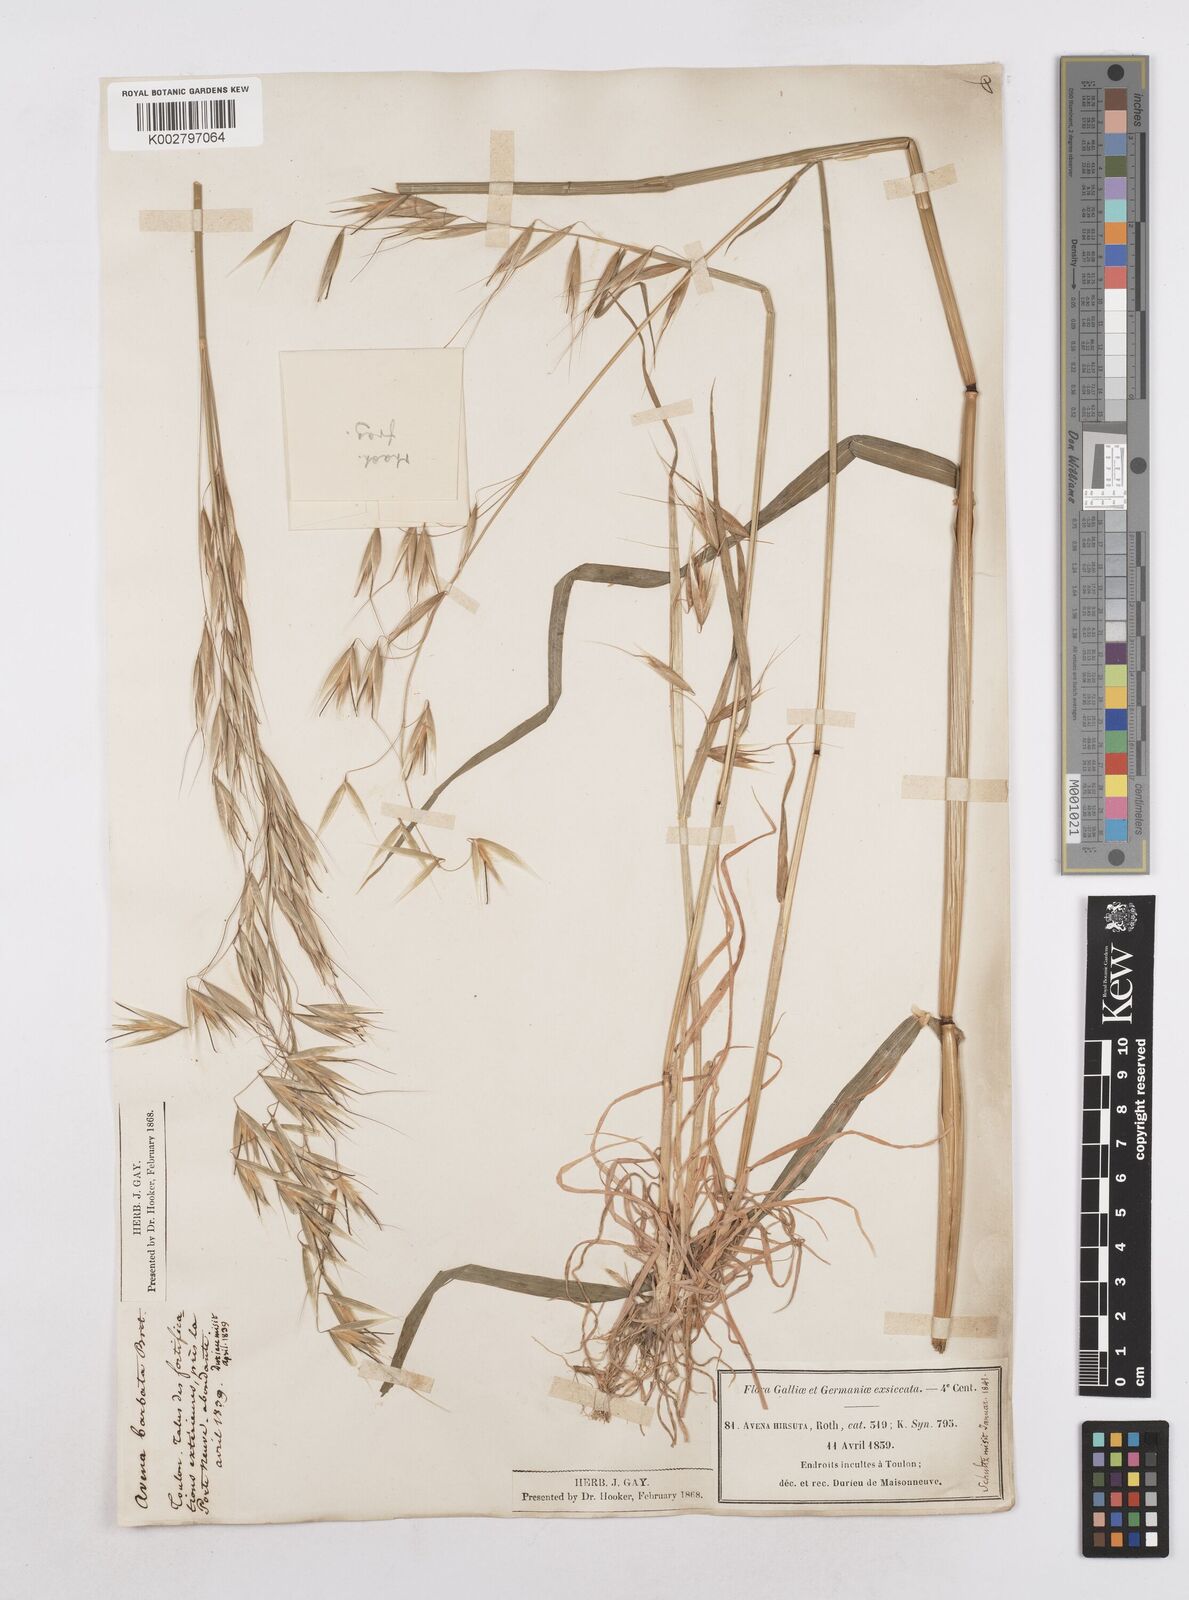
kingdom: Plantae
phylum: Tracheophyta
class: Liliopsida
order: Poales
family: Poaceae
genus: Avena
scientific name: Avena
